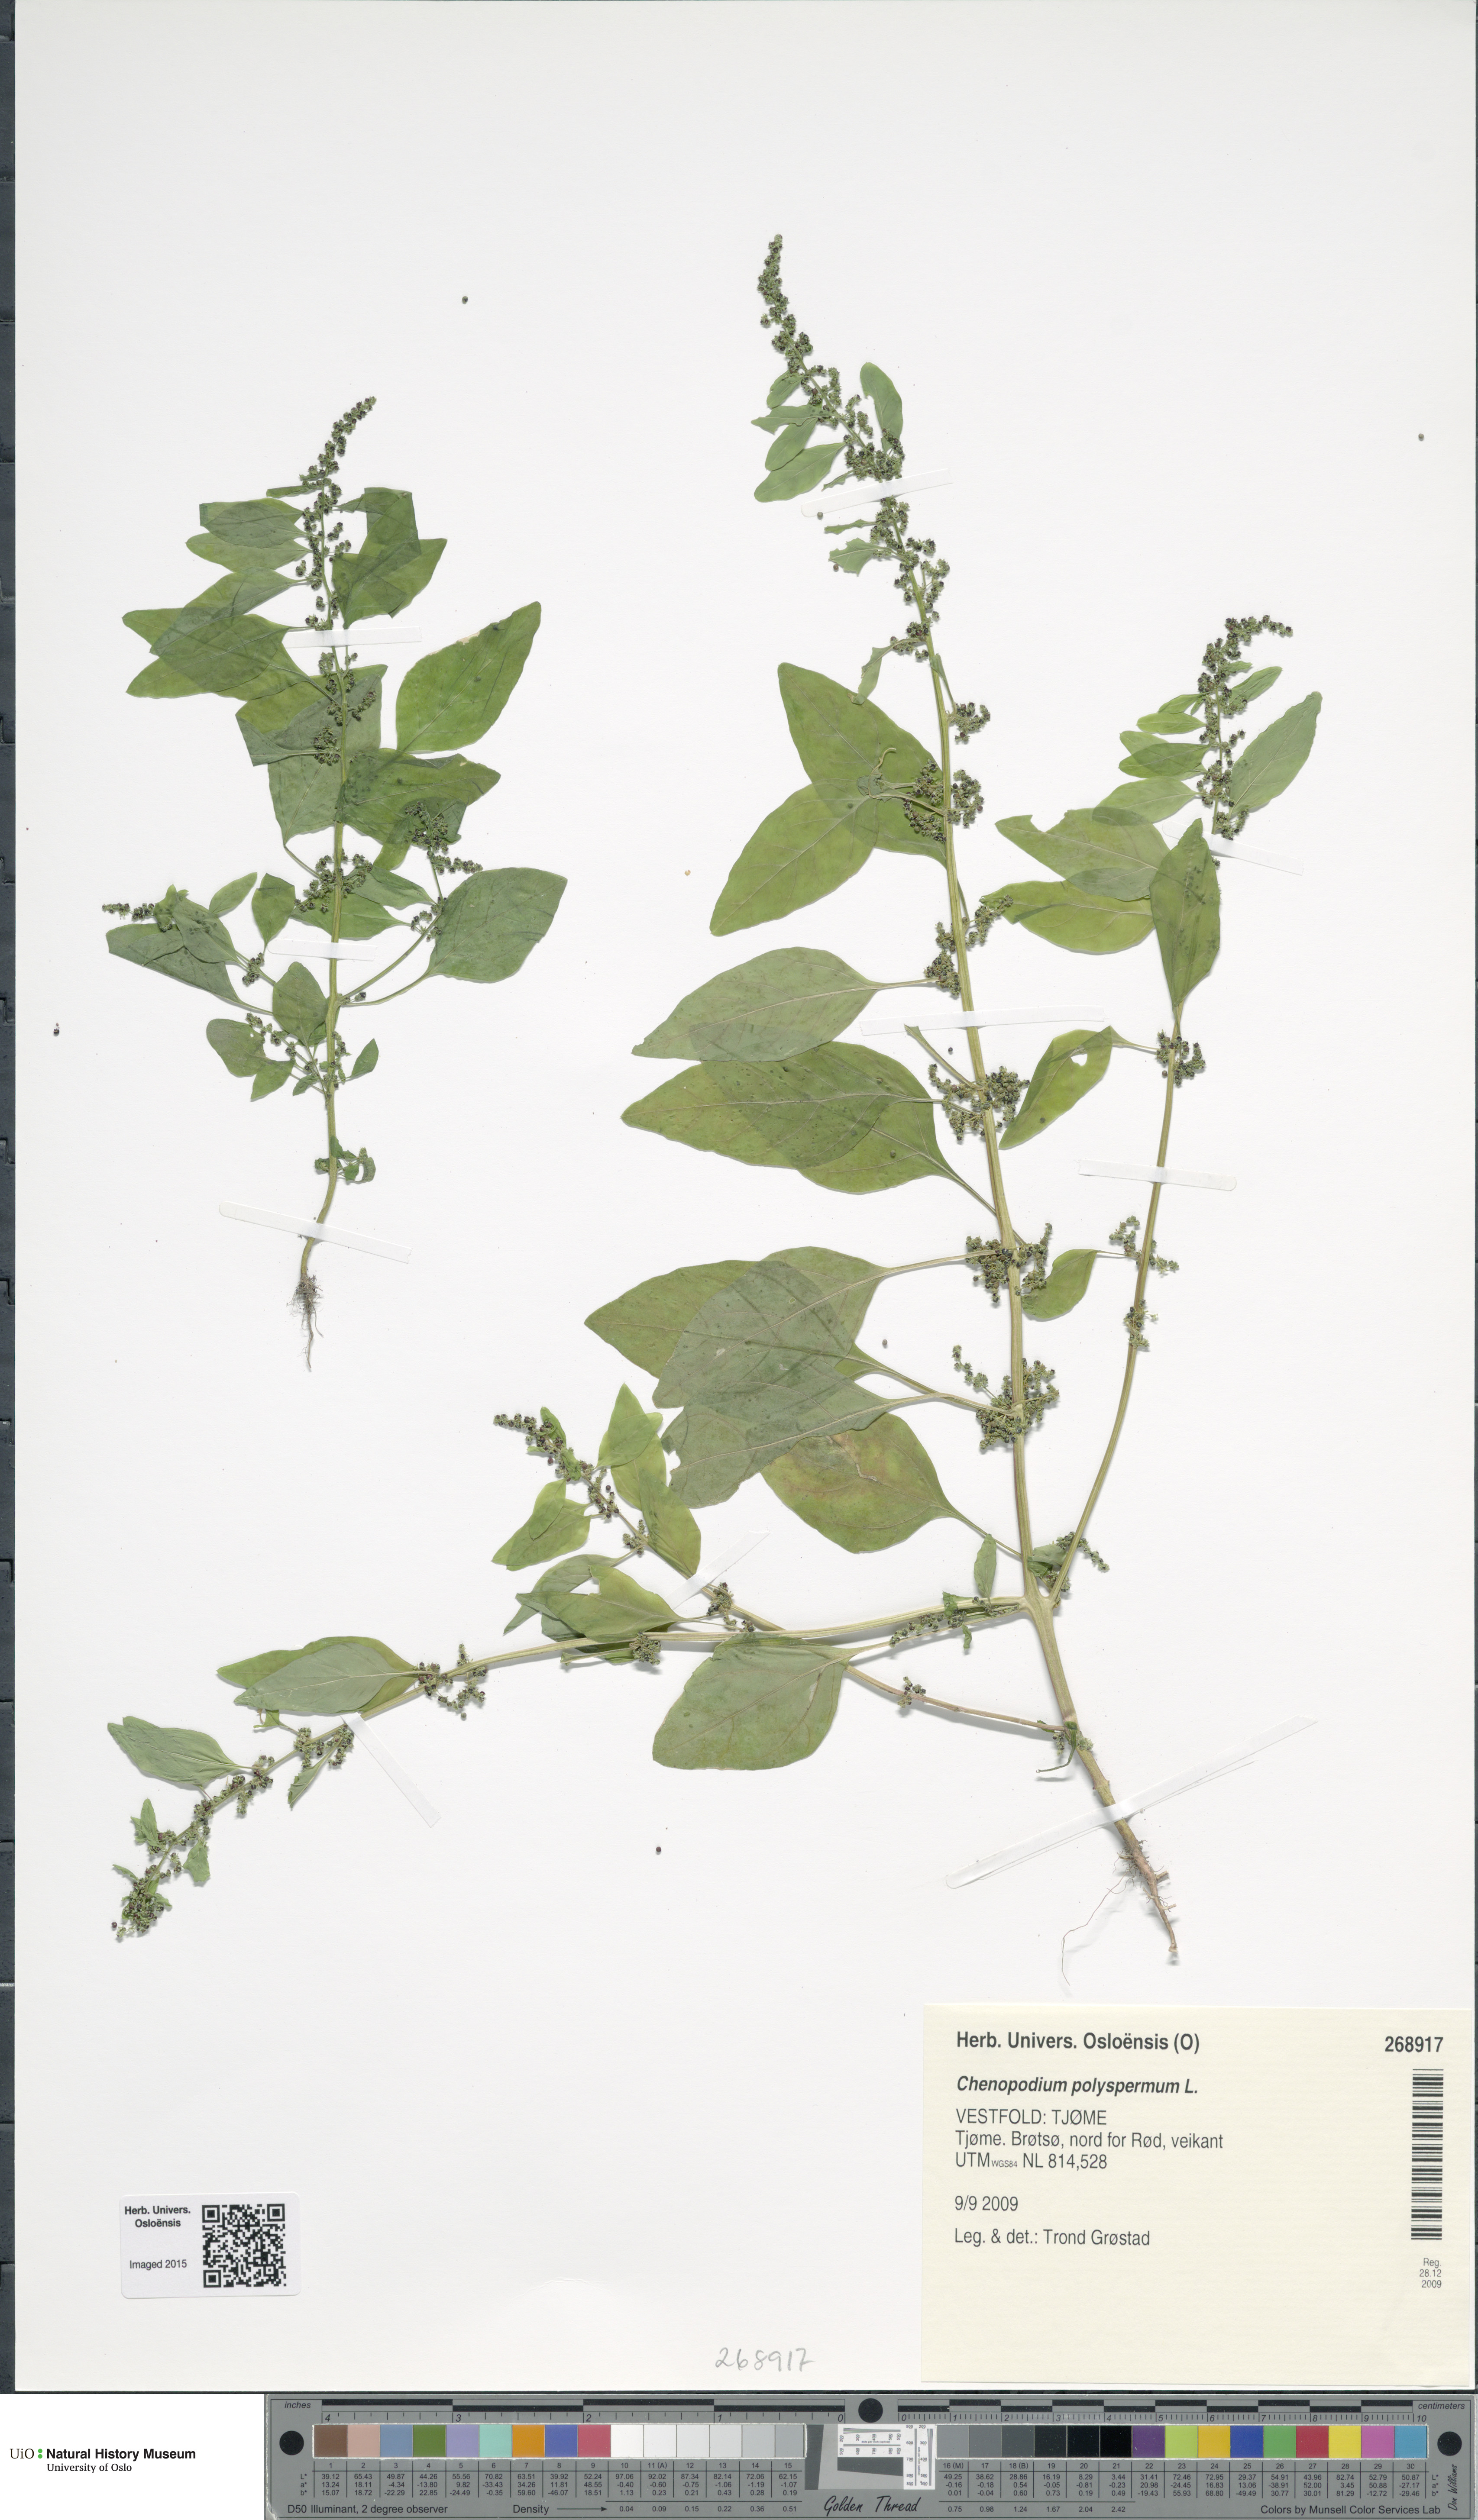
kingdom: Plantae
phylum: Tracheophyta
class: Magnoliopsida
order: Caryophyllales
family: Amaranthaceae
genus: Lipandra
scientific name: Lipandra polysperma
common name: Many-seed goosefoot
